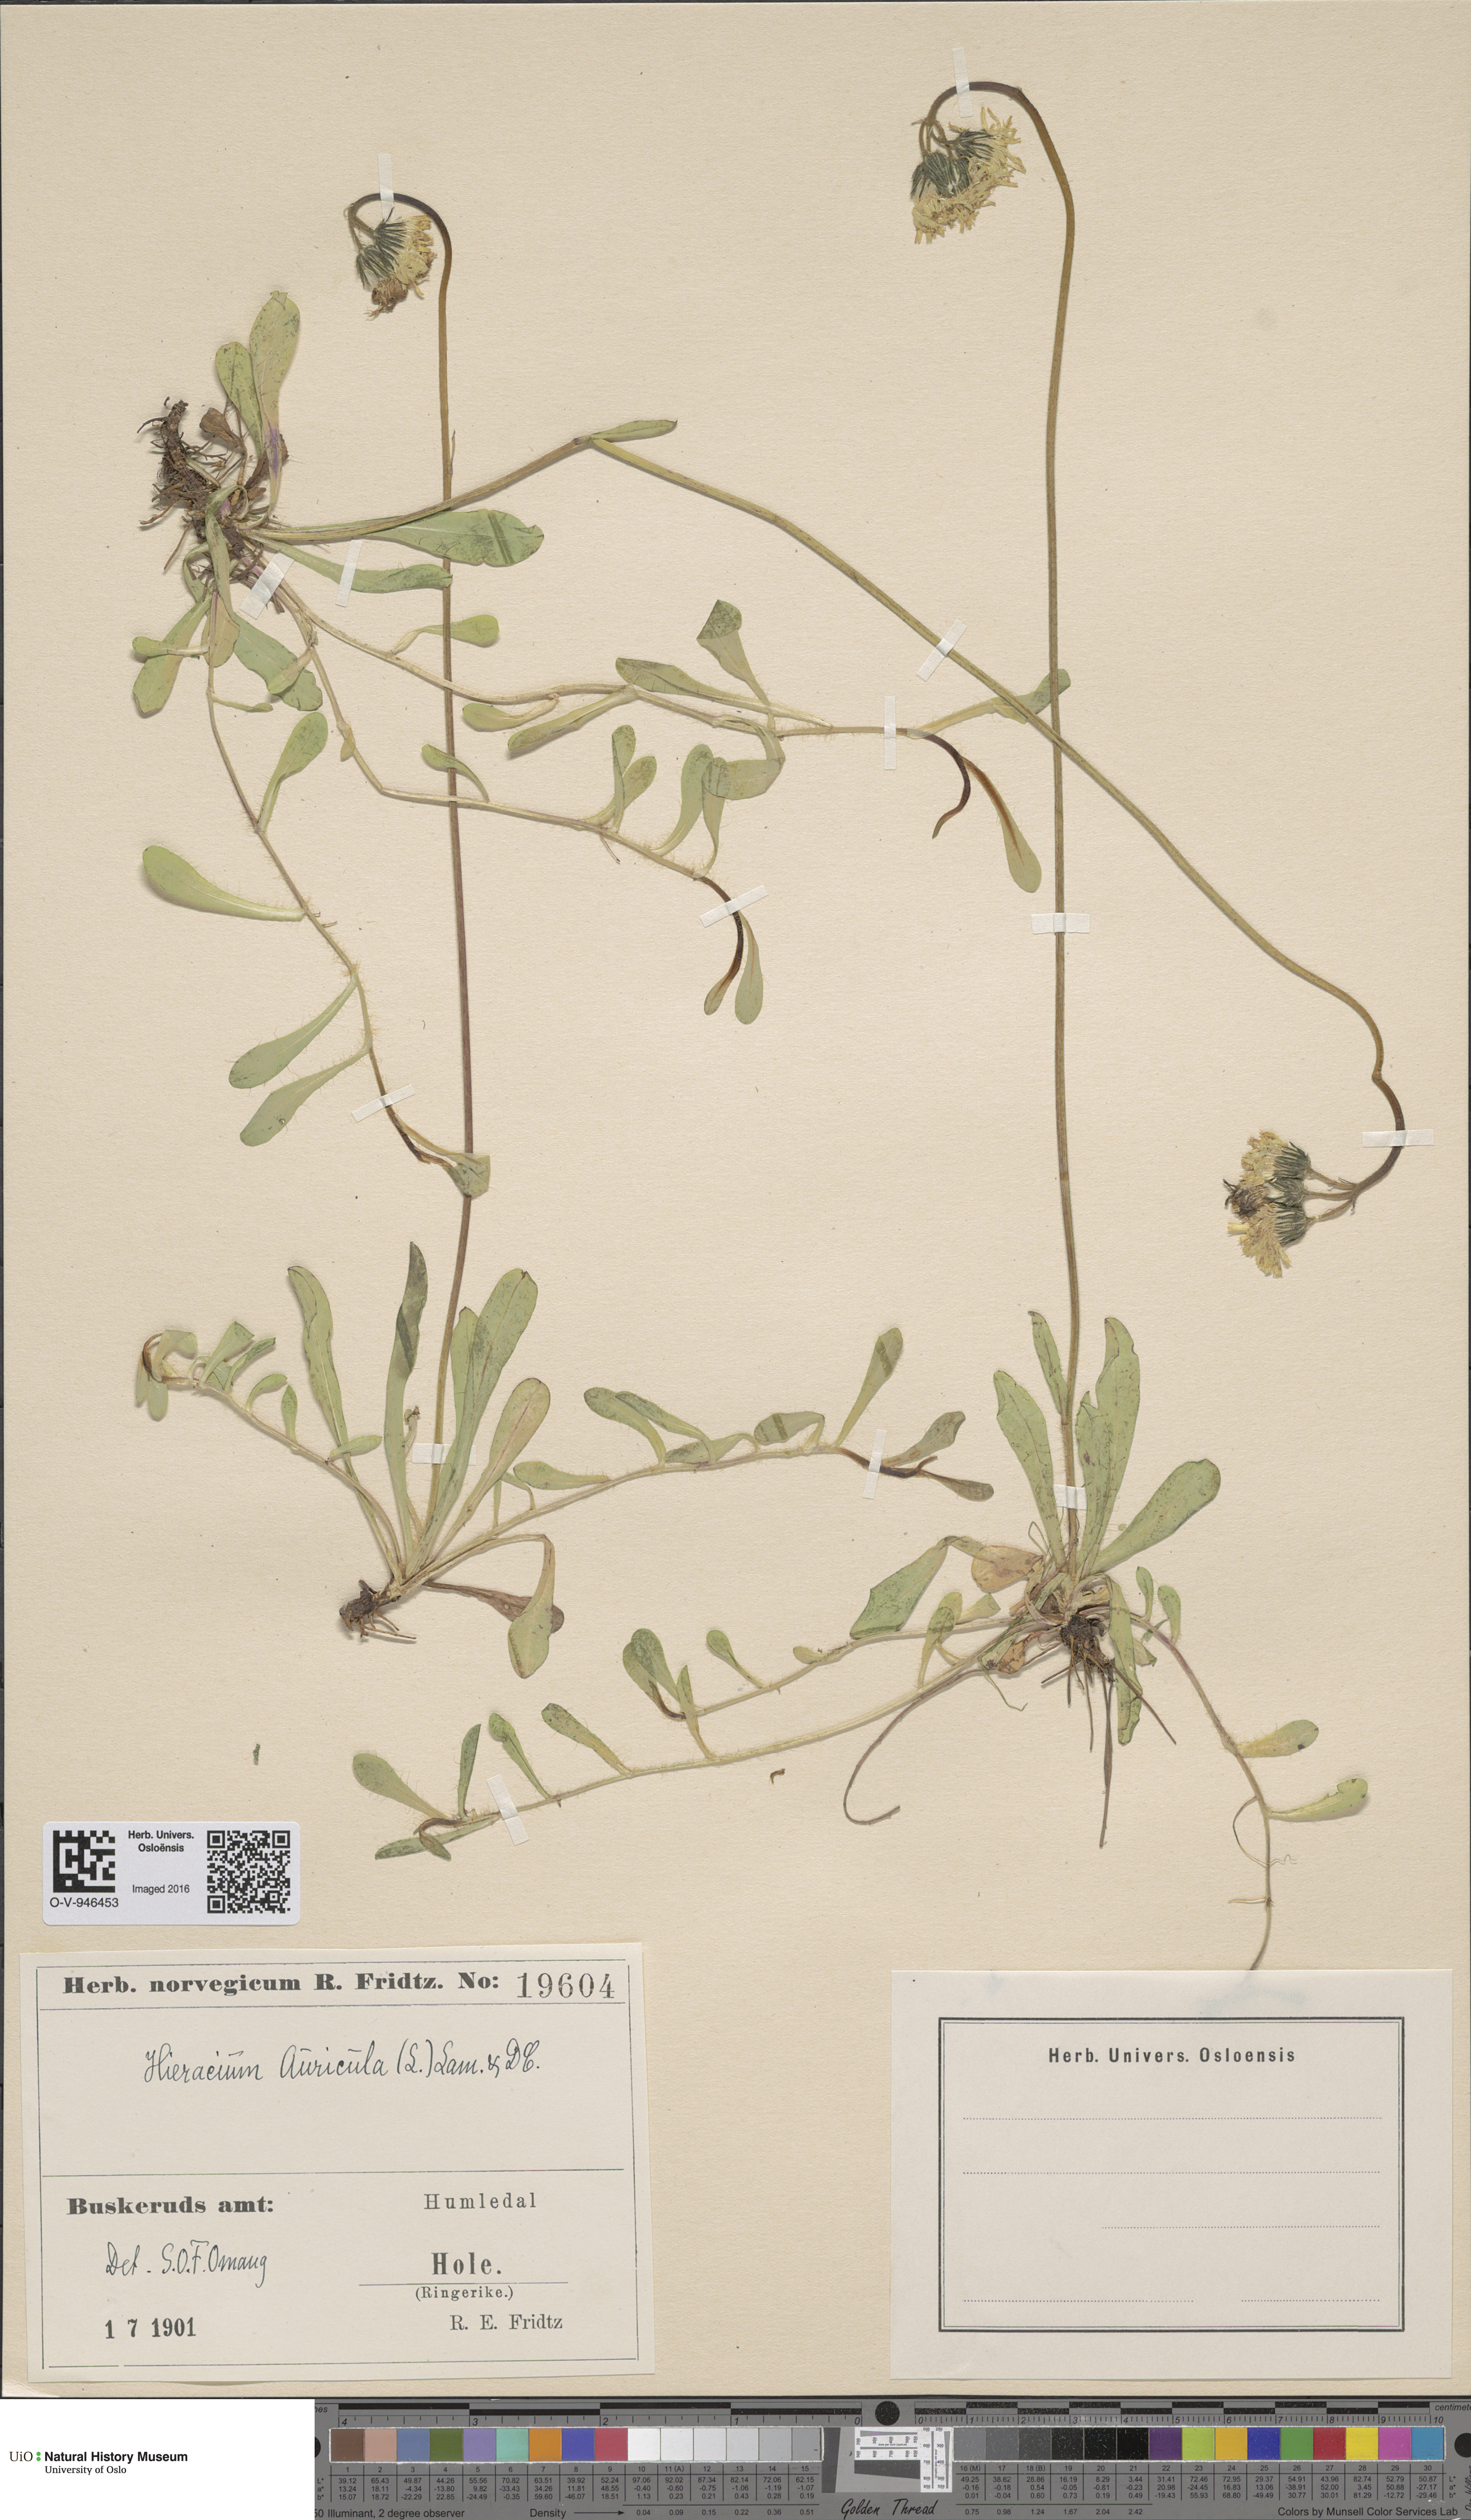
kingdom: Plantae
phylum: Tracheophyta
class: Magnoliopsida
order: Asterales
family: Asteraceae
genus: Pilosella
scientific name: Pilosella lactucella
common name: Glaucous fox-and-cubs
